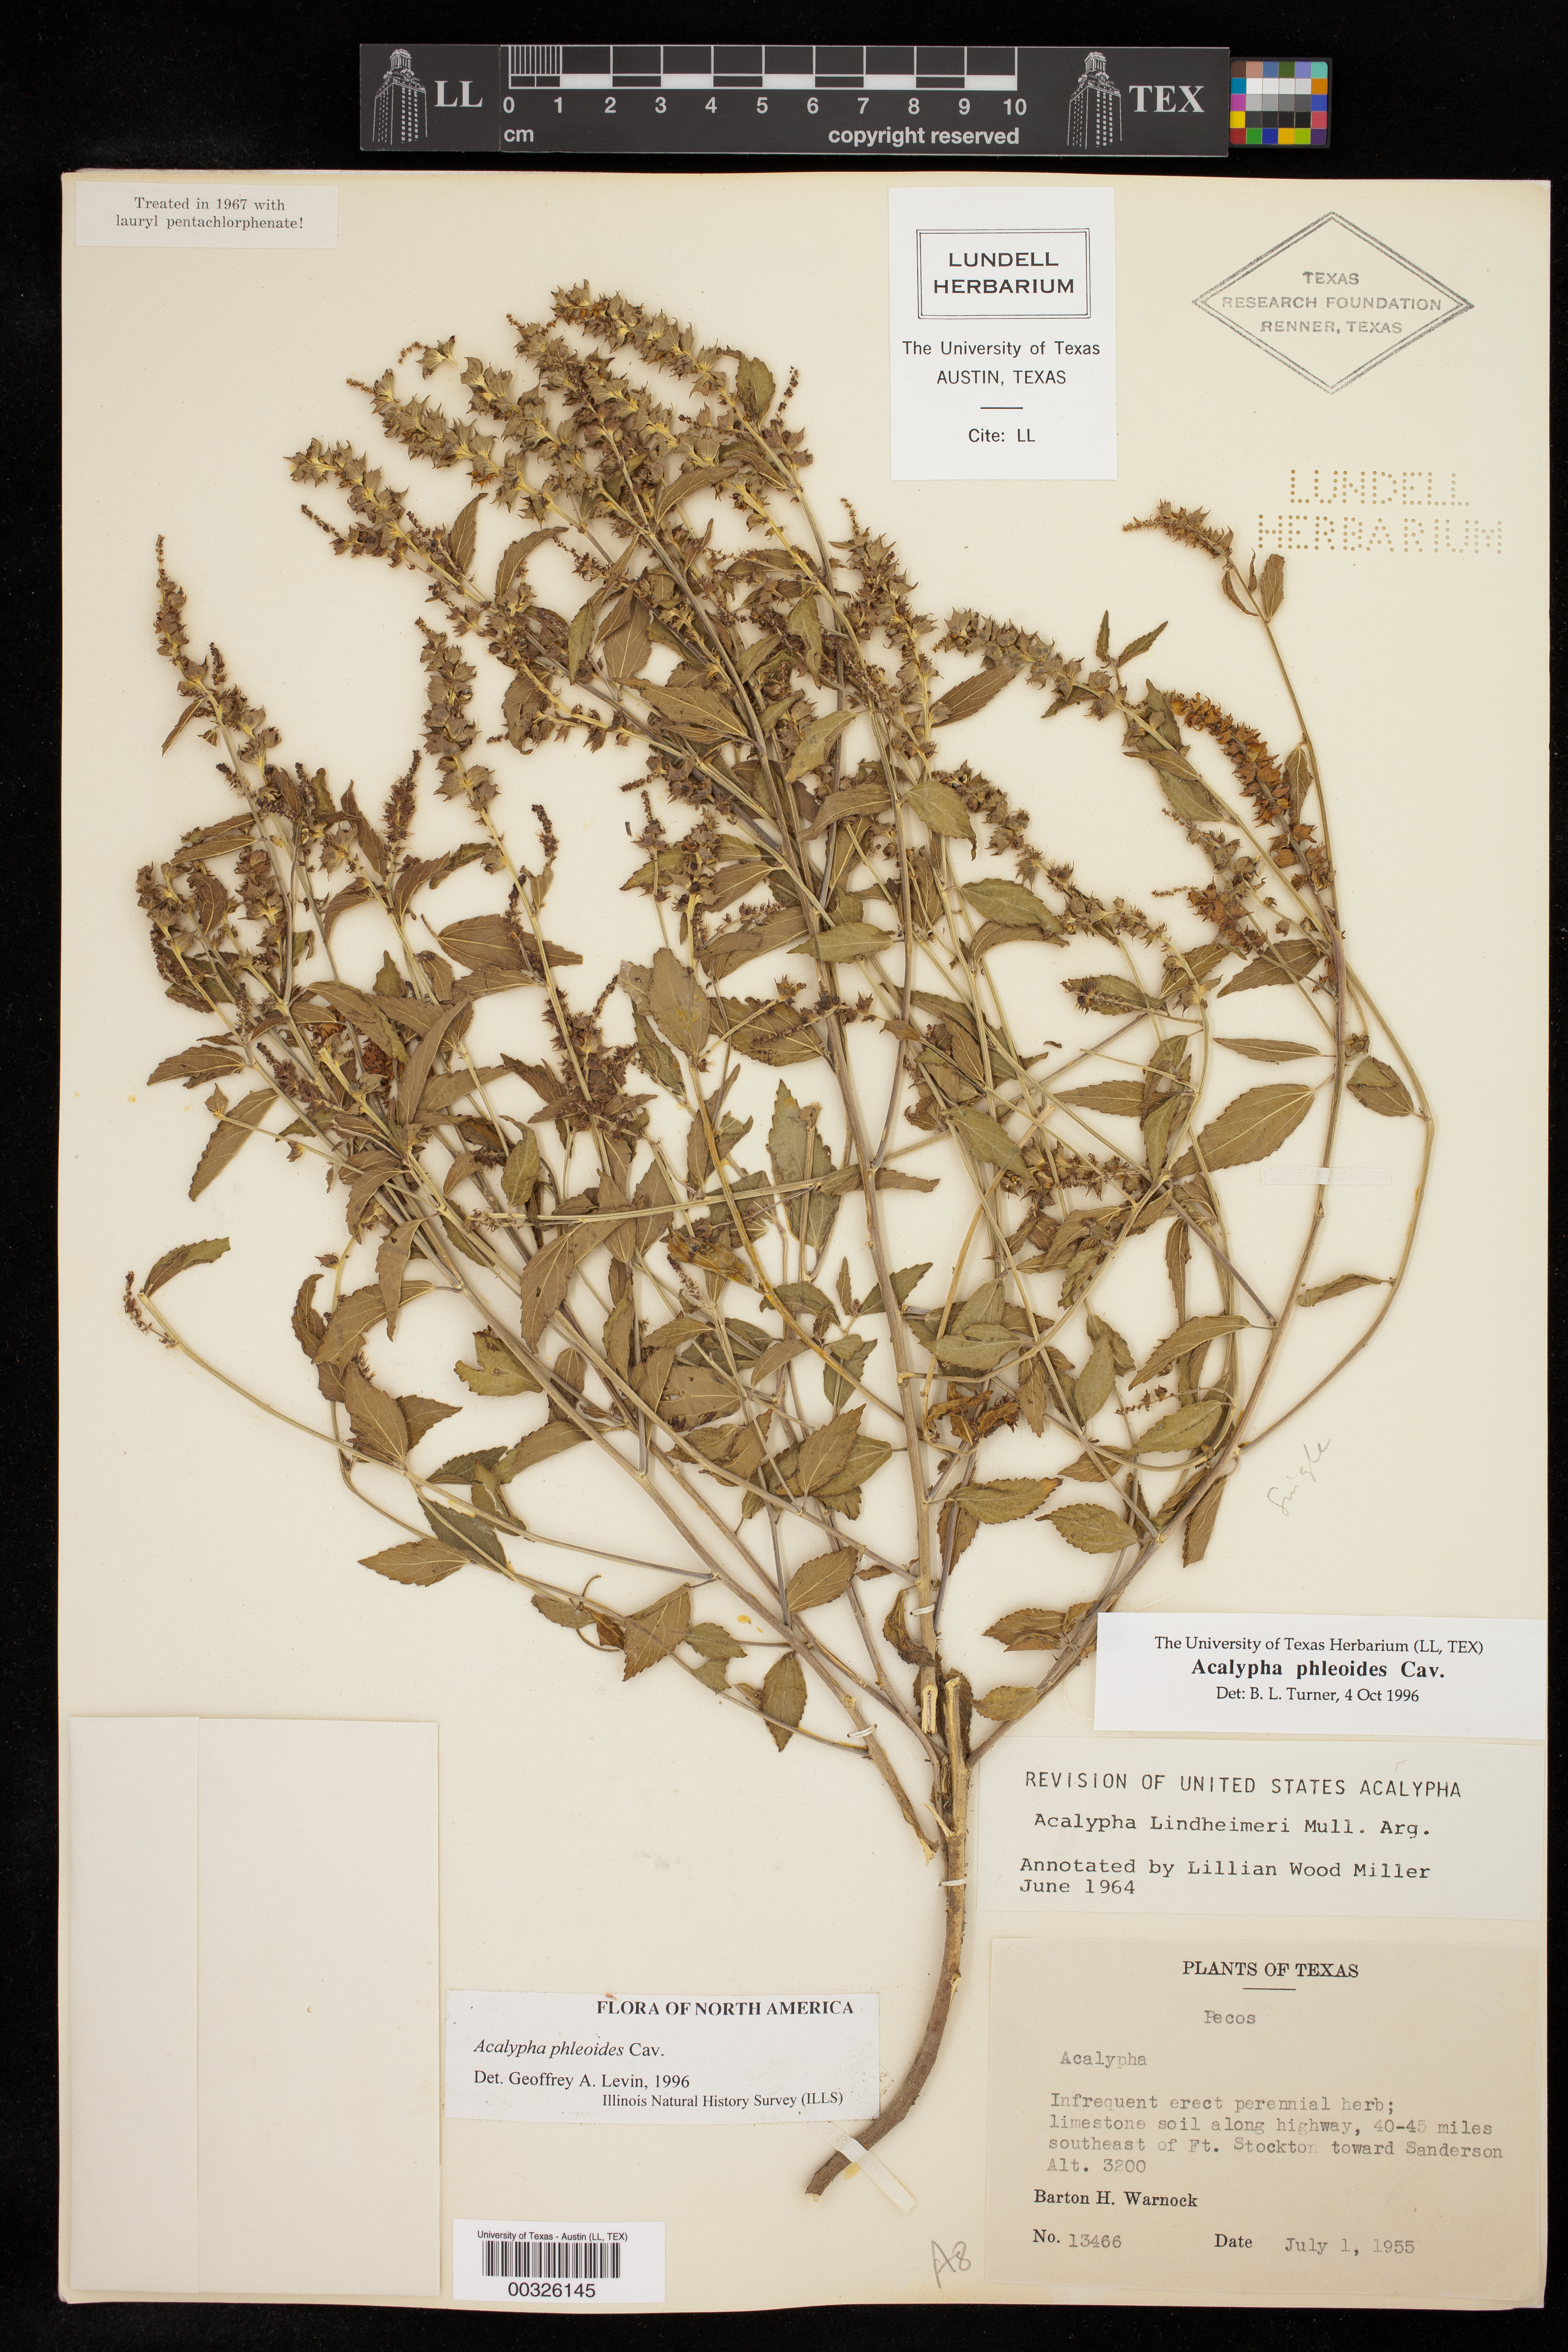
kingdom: Plantae
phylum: Tracheophyta
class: Magnoliopsida
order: Malpighiales
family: Euphorbiaceae
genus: Acalypha
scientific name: Acalypha phleoides
